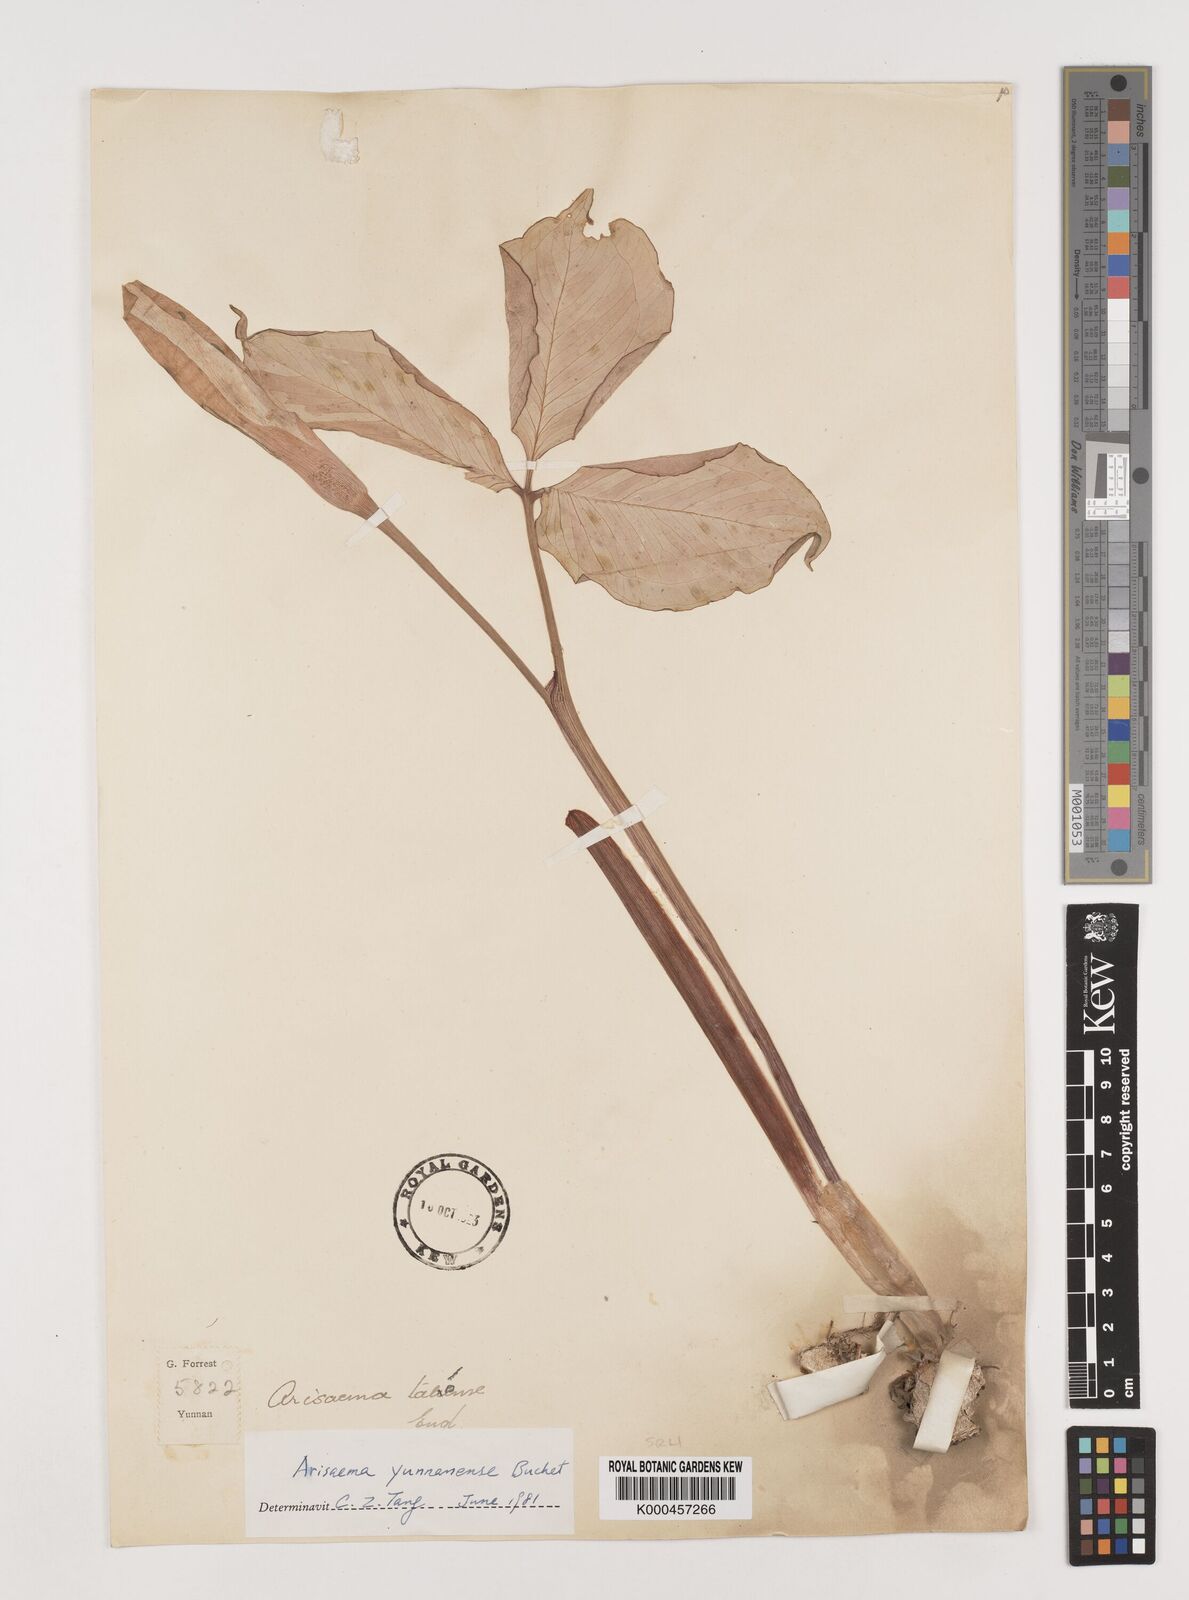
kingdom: Plantae
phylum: Tracheophyta
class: Liliopsida
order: Alismatales
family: Araceae
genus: Arisaema
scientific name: Arisaema yunnanense
